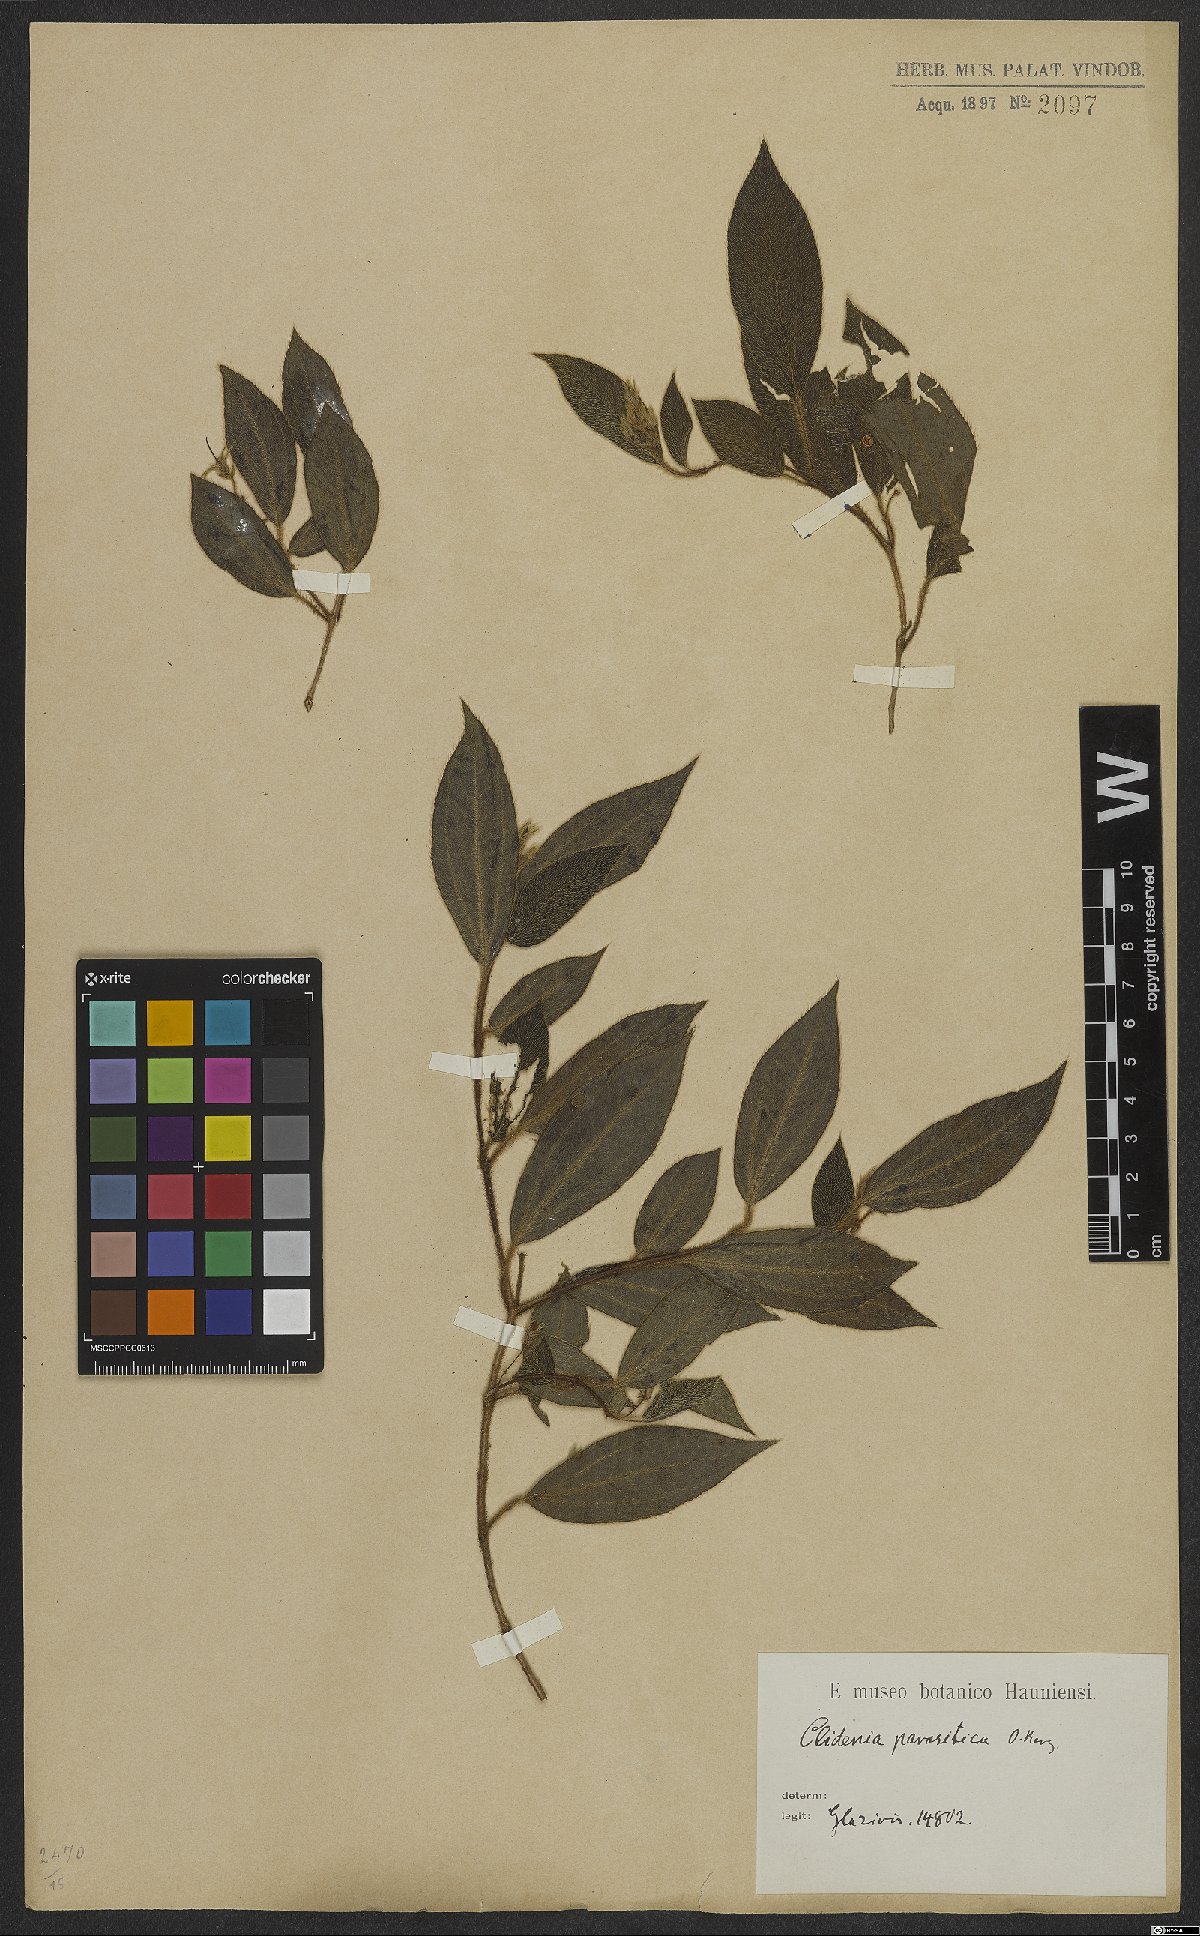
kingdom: Plantae
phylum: Tracheophyta
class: Magnoliopsida
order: Myrtales
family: Melastomataceae
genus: Miconia
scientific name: Miconia parasitica
